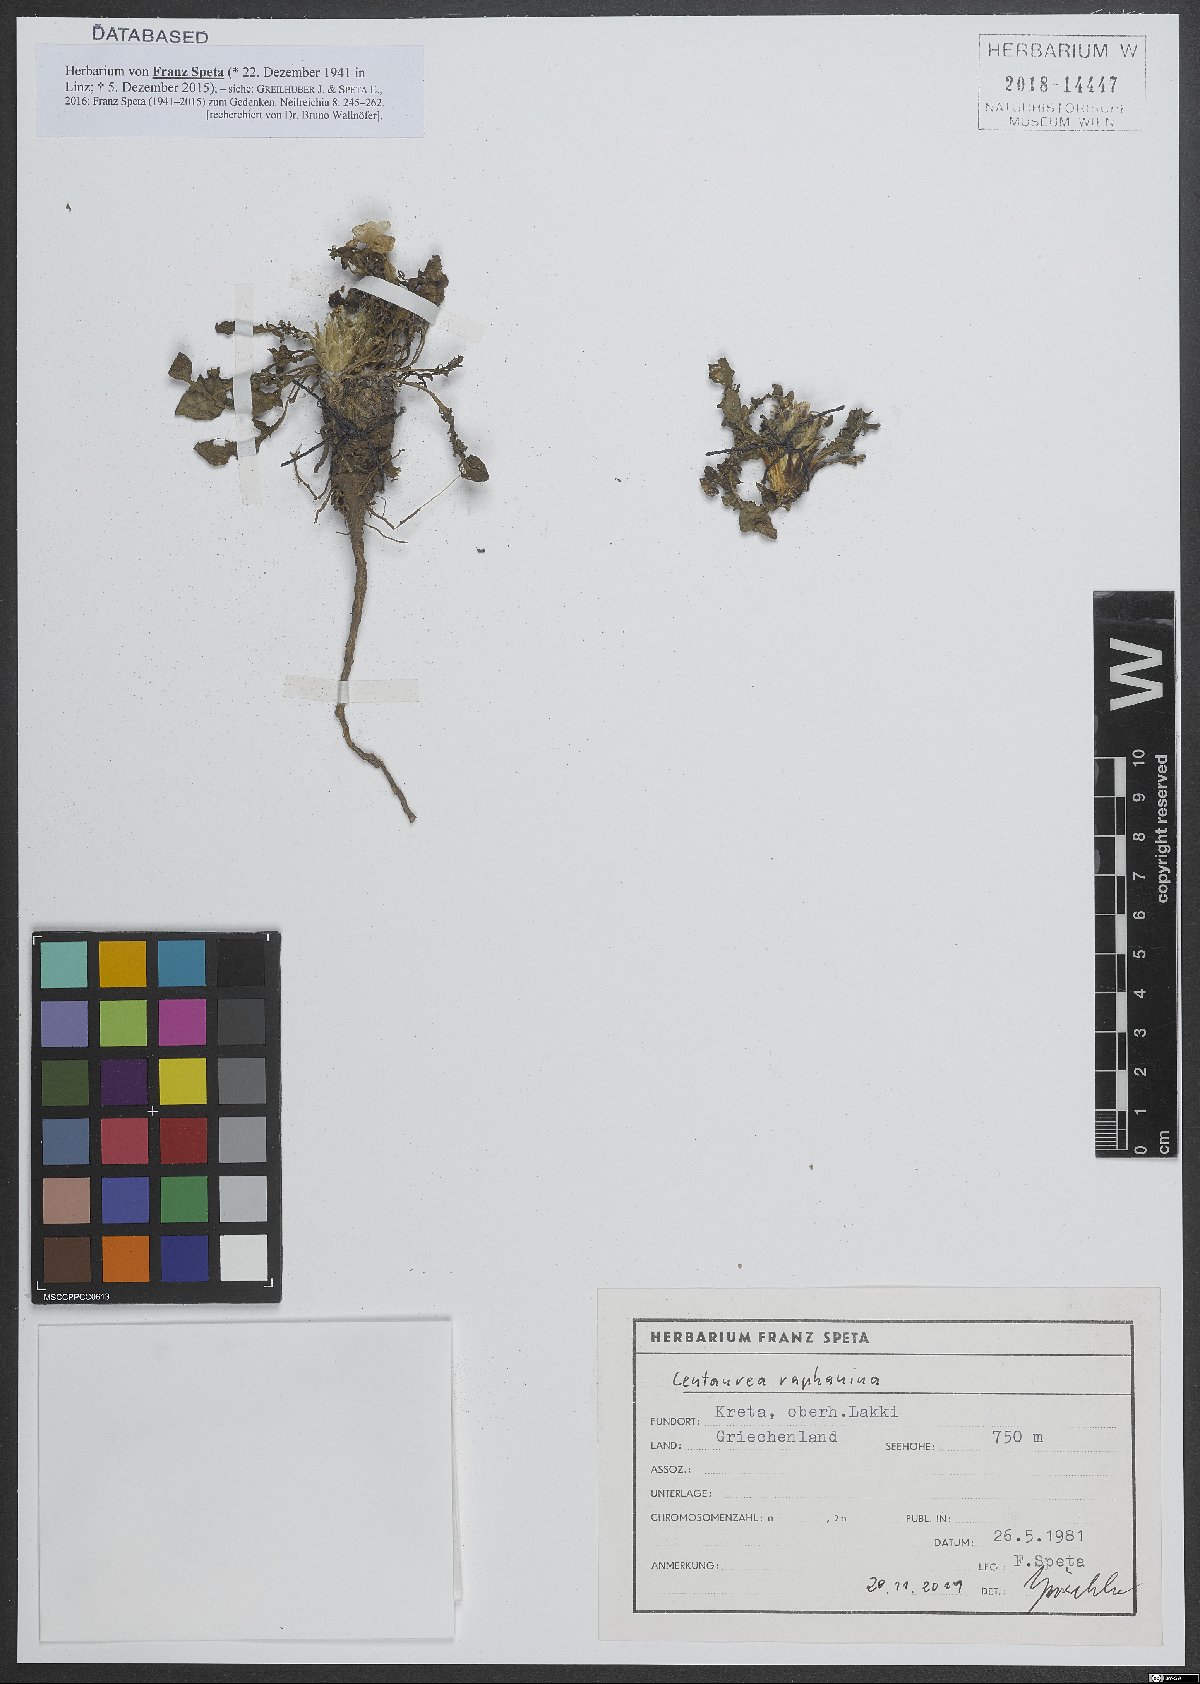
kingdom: Plantae
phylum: Tracheophyta
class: Magnoliopsida
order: Asterales
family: Asteraceae
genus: Centaurea
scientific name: Centaurea raphanina
